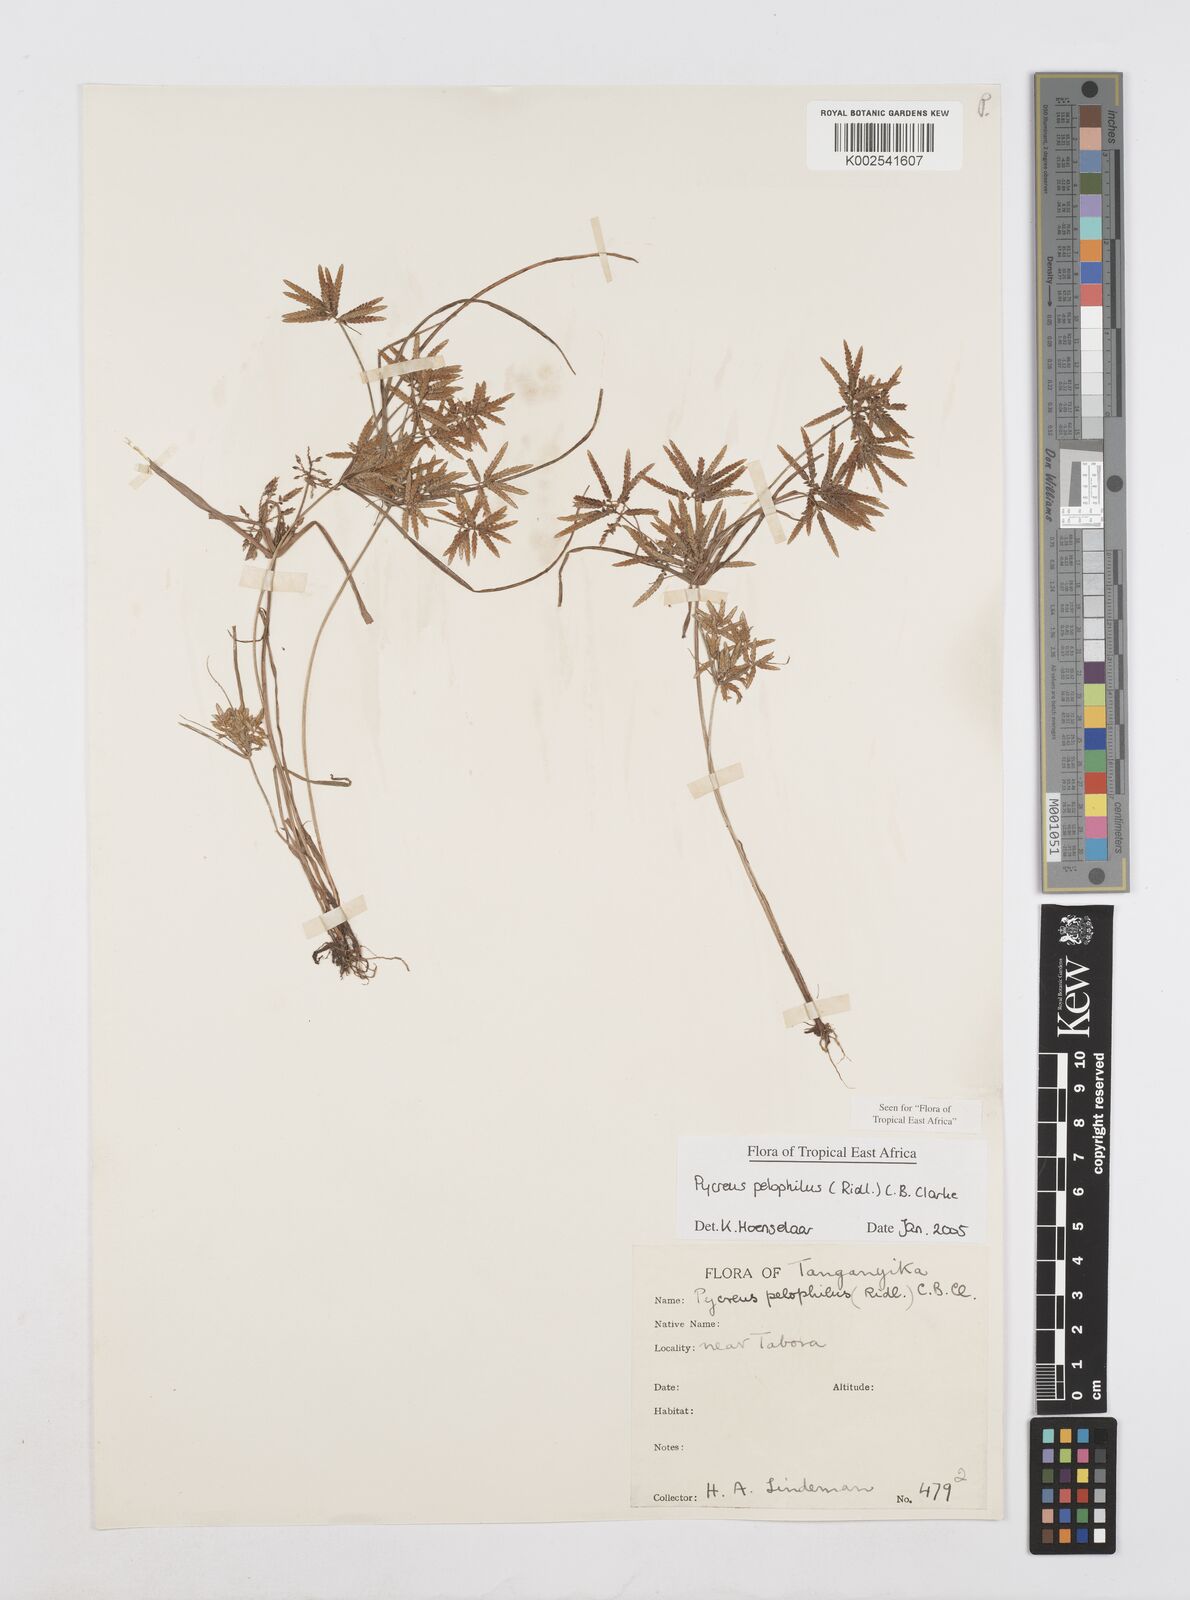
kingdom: Plantae
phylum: Tracheophyta
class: Liliopsida
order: Poales
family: Cyperaceae
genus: Cyperus
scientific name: Cyperus pelophilus
